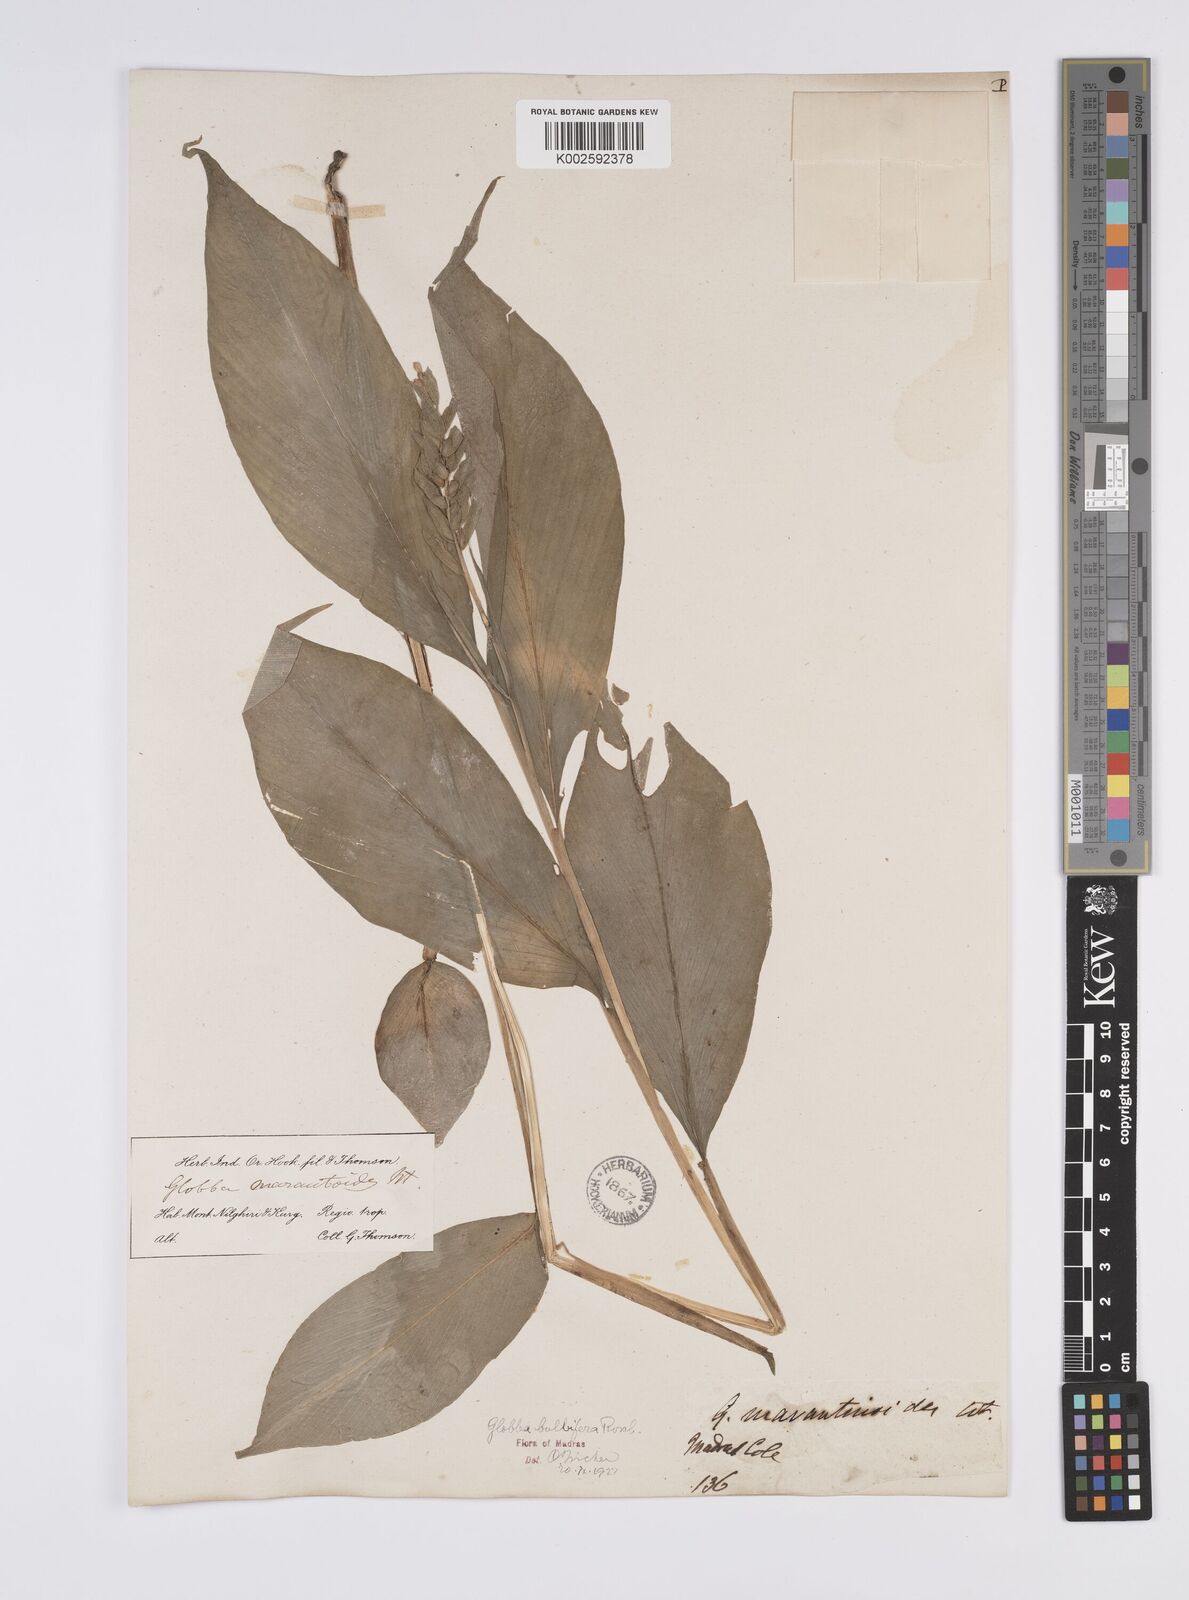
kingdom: Plantae
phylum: Tracheophyta
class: Liliopsida
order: Zingiberales
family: Zingiberaceae
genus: Globba
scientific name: Globba marantina
